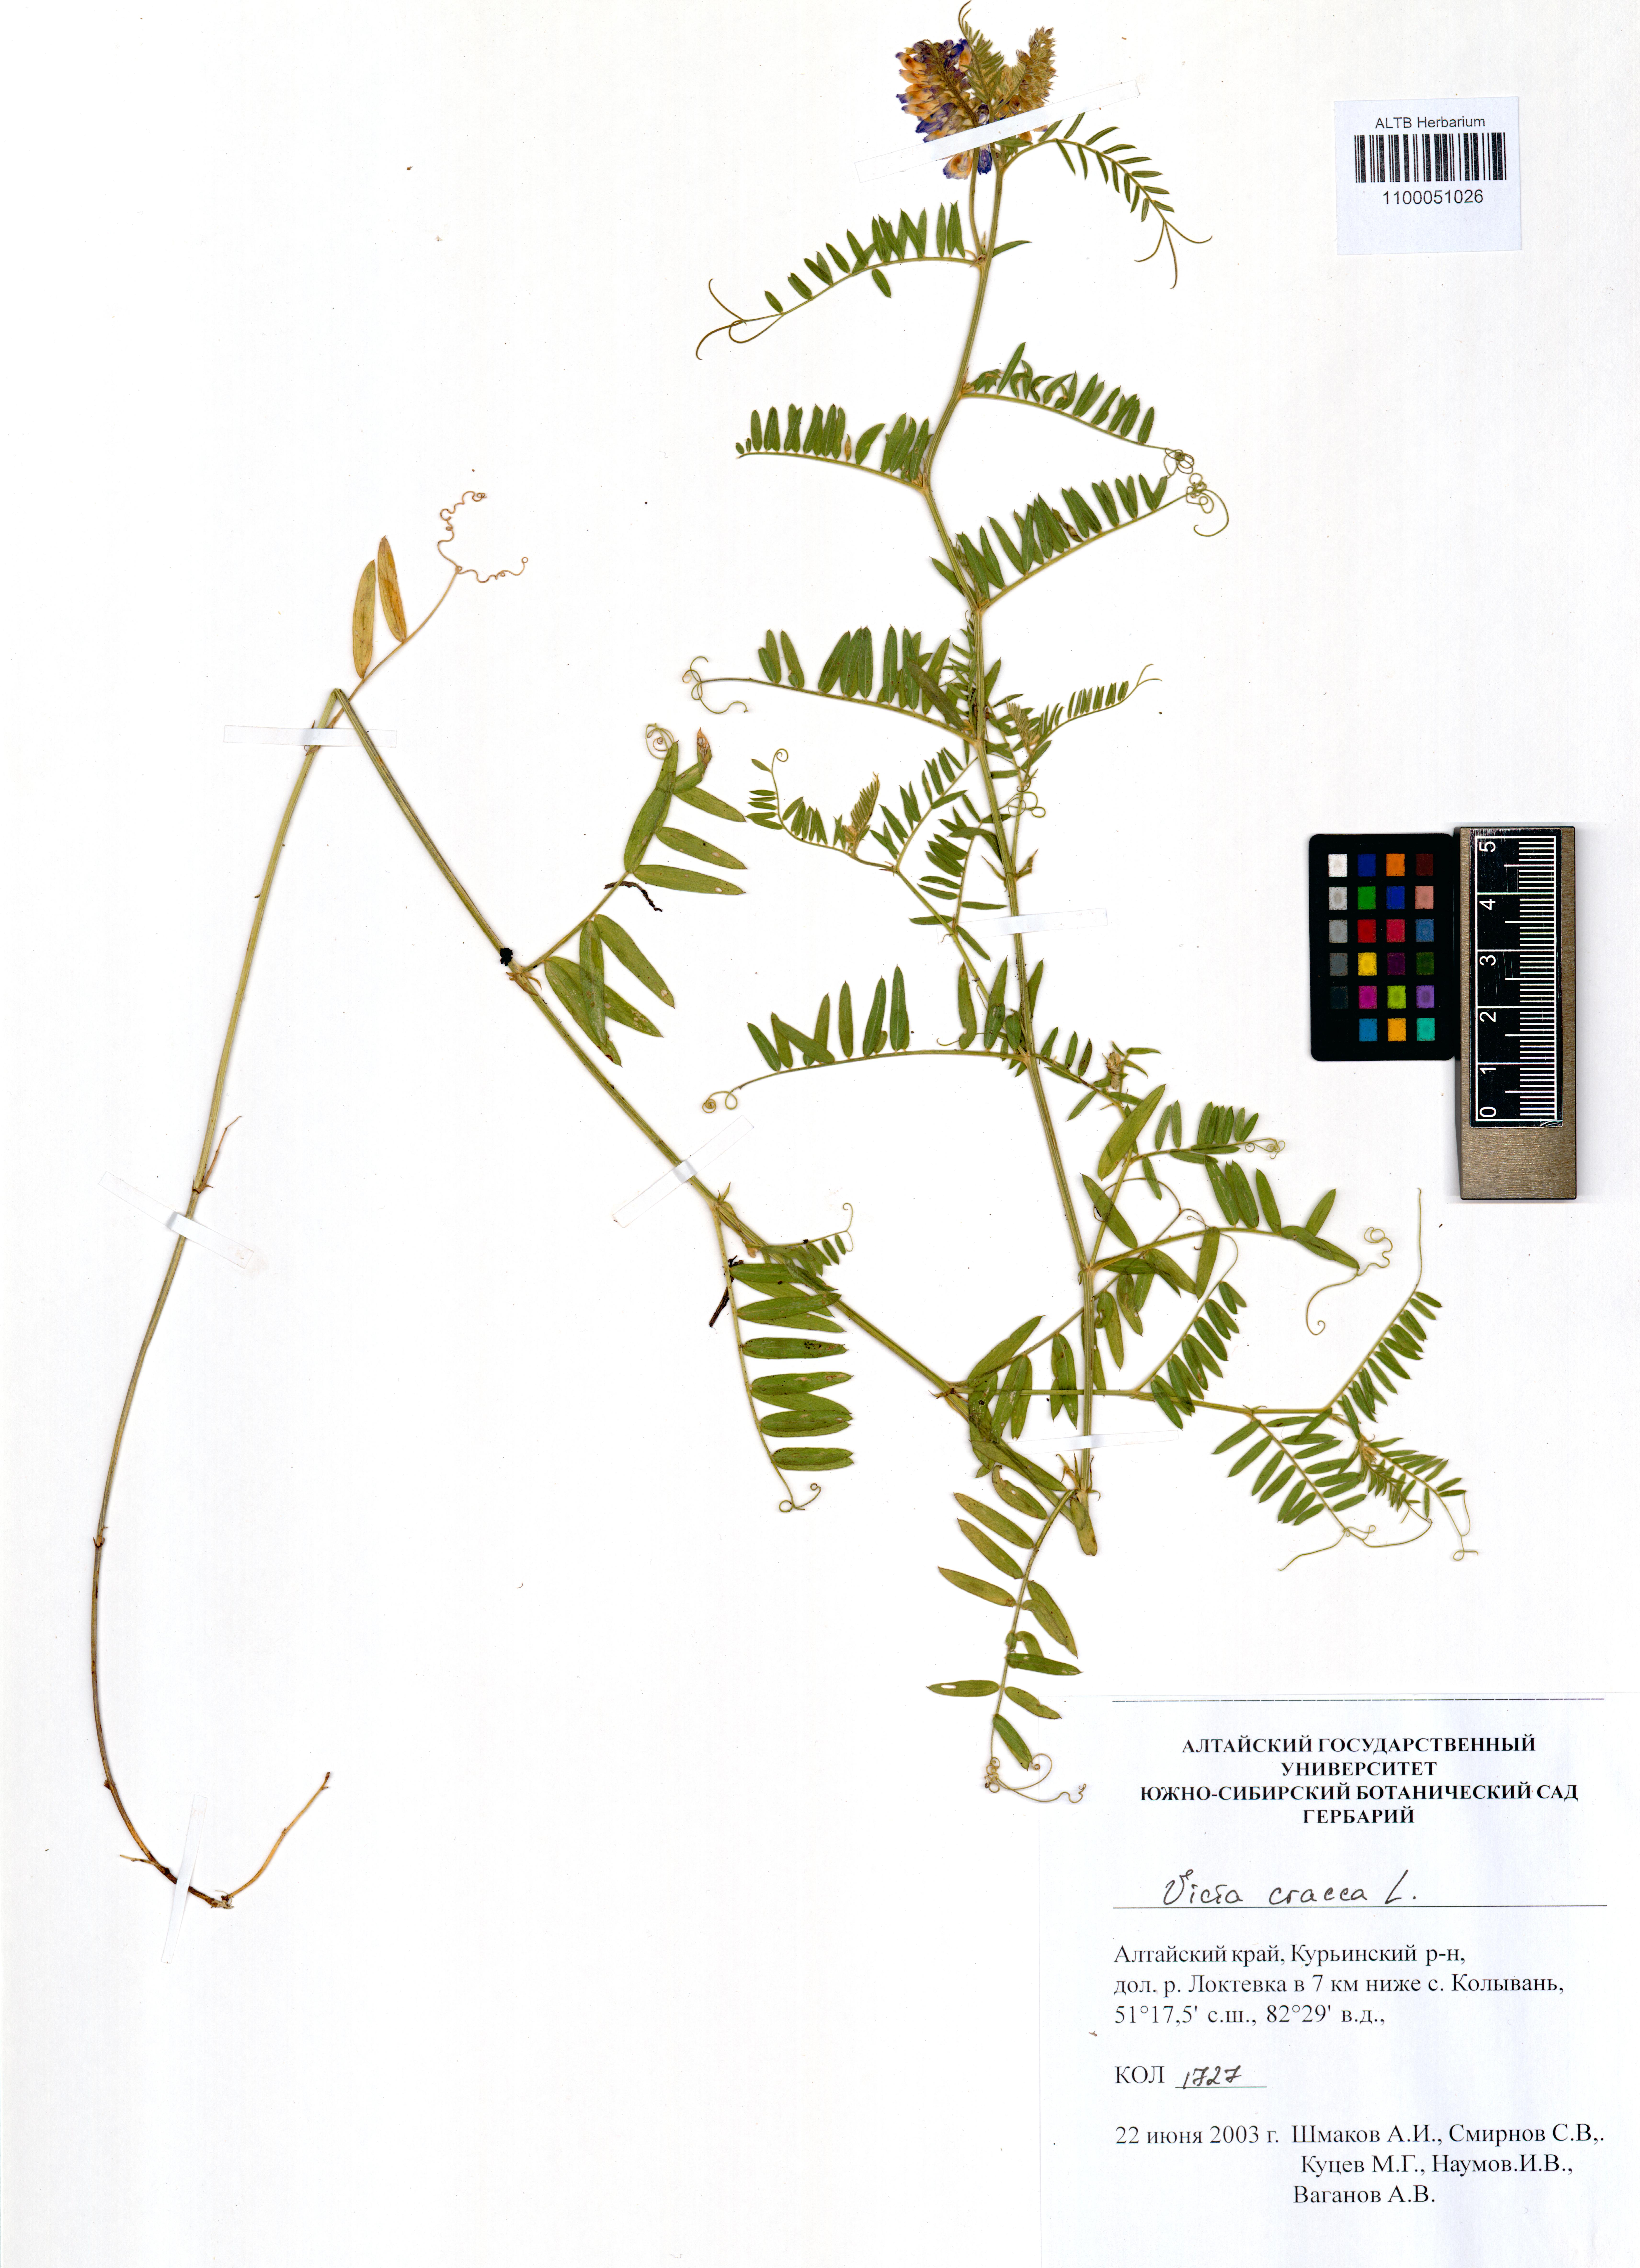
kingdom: Plantae
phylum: Tracheophyta
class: Magnoliopsida
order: Fabales
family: Fabaceae
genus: Vicia
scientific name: Vicia cracca
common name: Bird vetch
